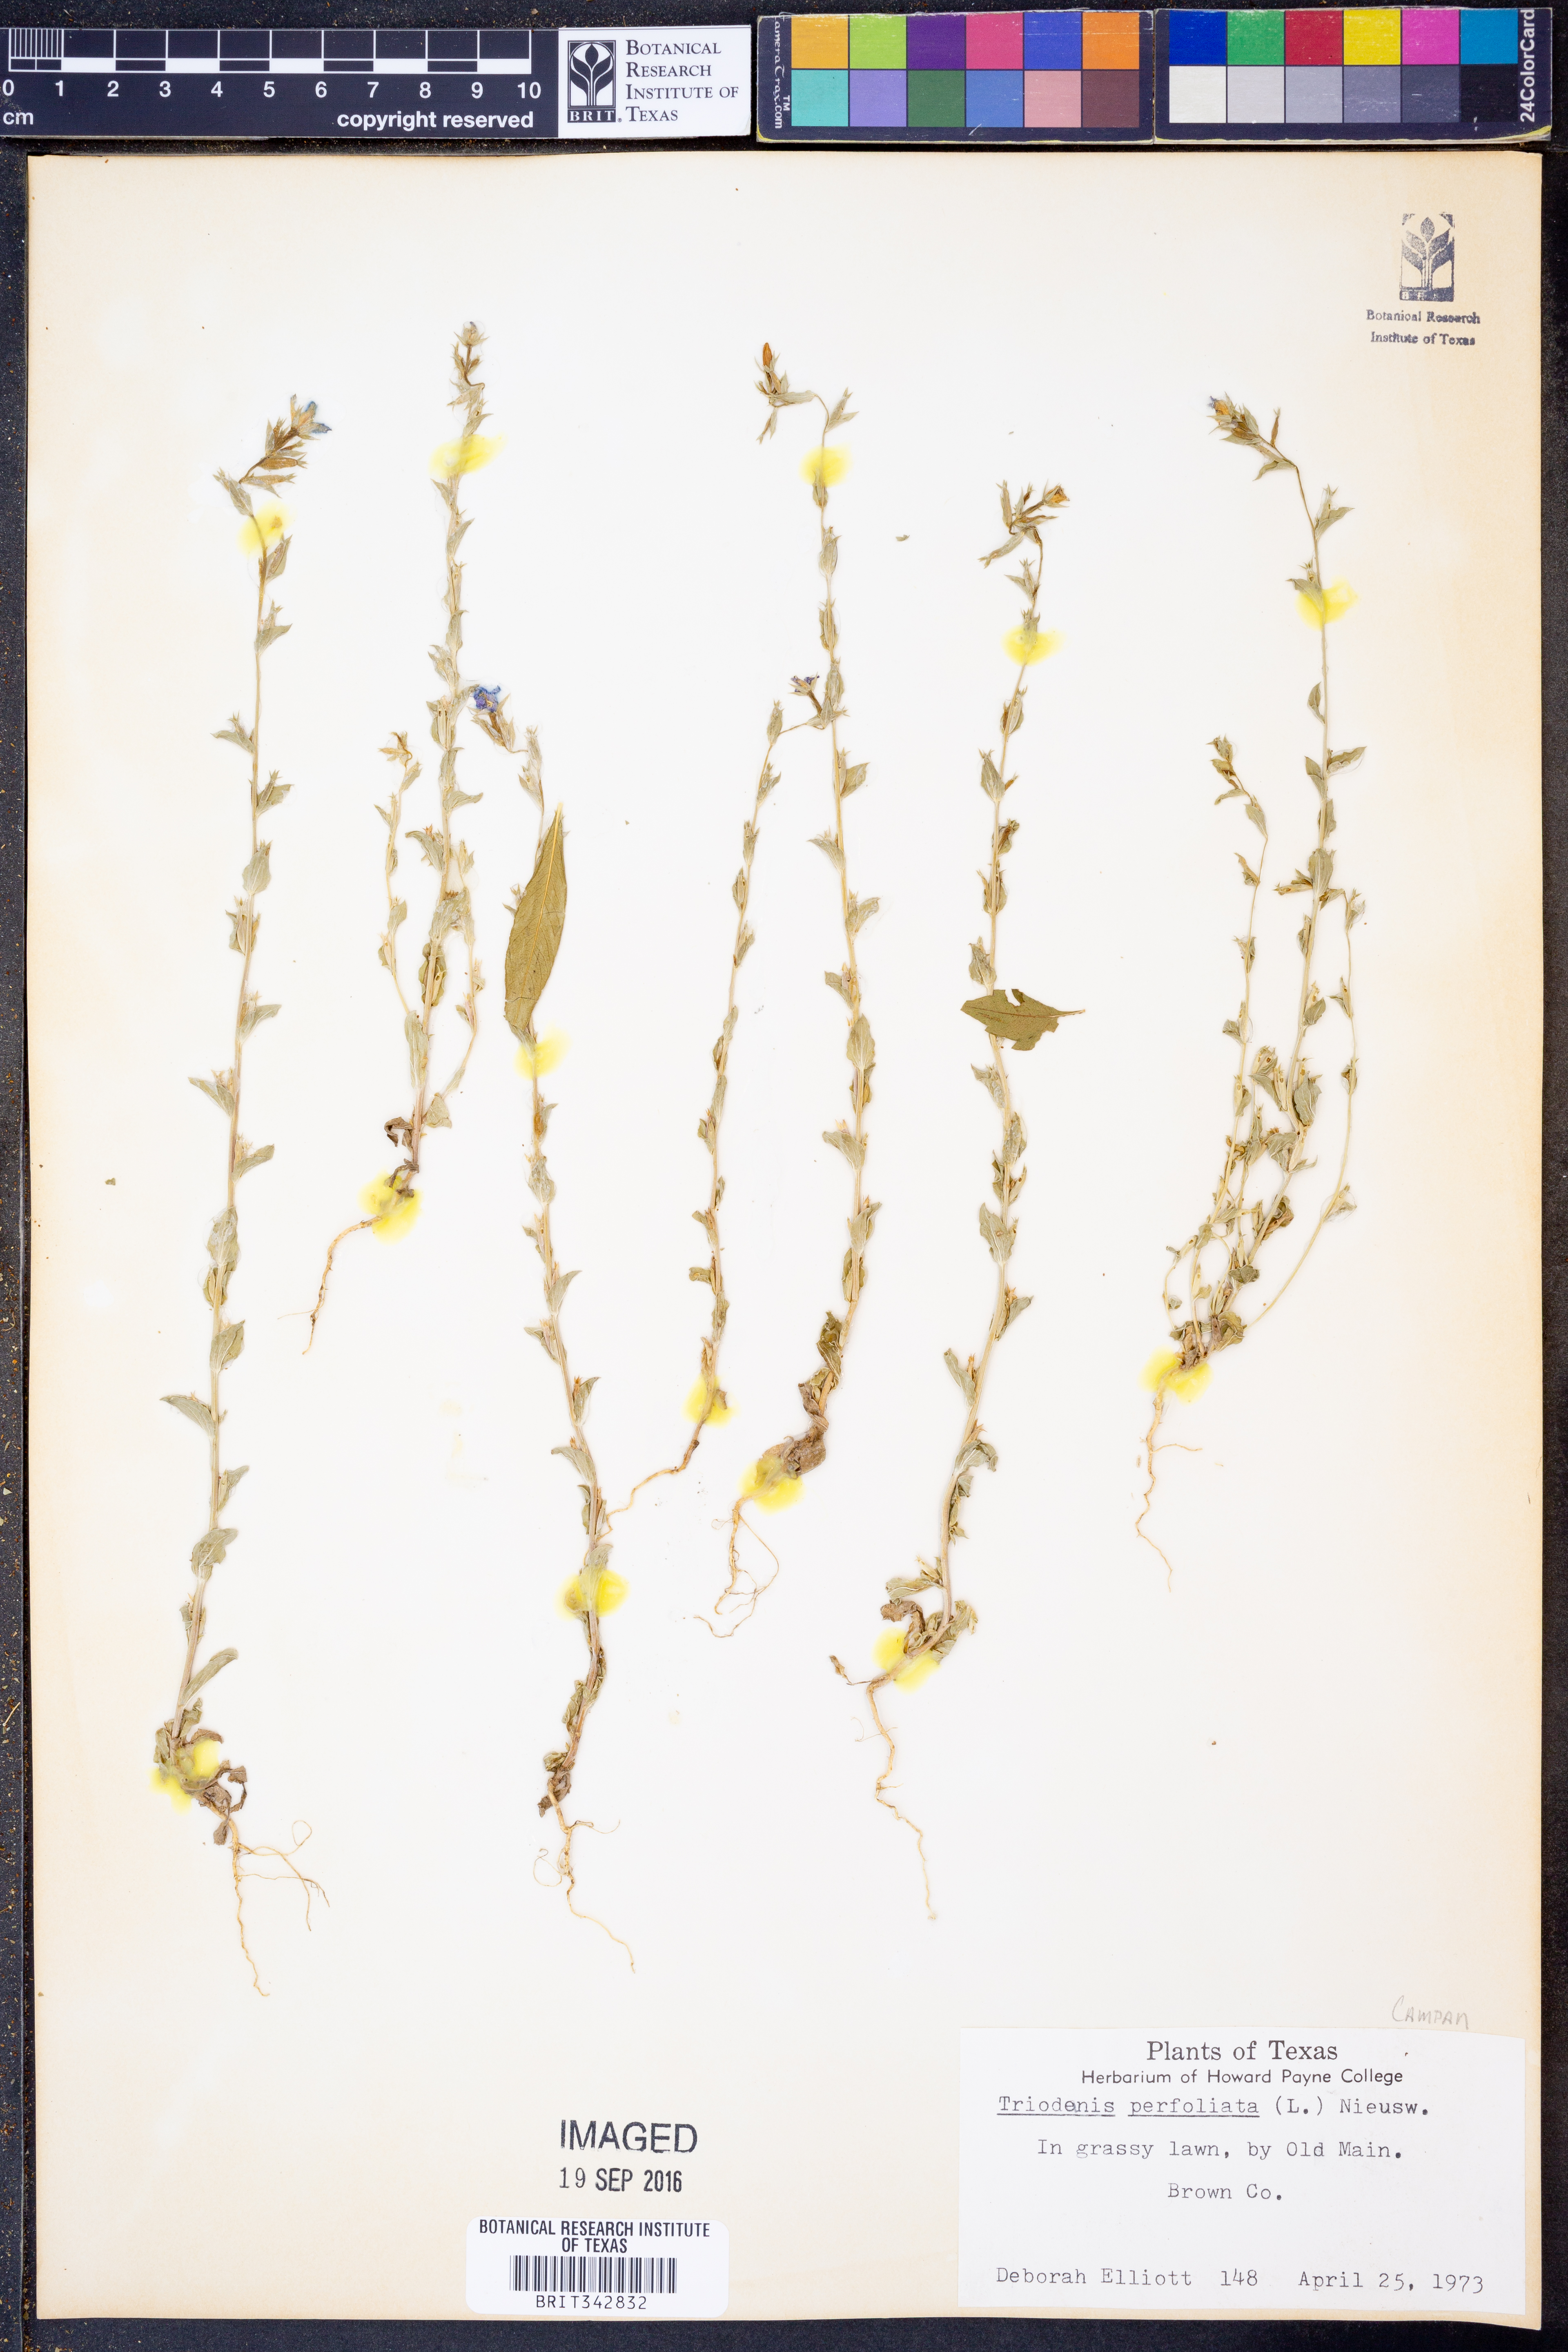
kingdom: Plantae
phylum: Tracheophyta
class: Magnoliopsida
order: Asterales
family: Campanulaceae
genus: Triodanis
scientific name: Triodanis perfoliata
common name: Clasping venus' looking-glass
